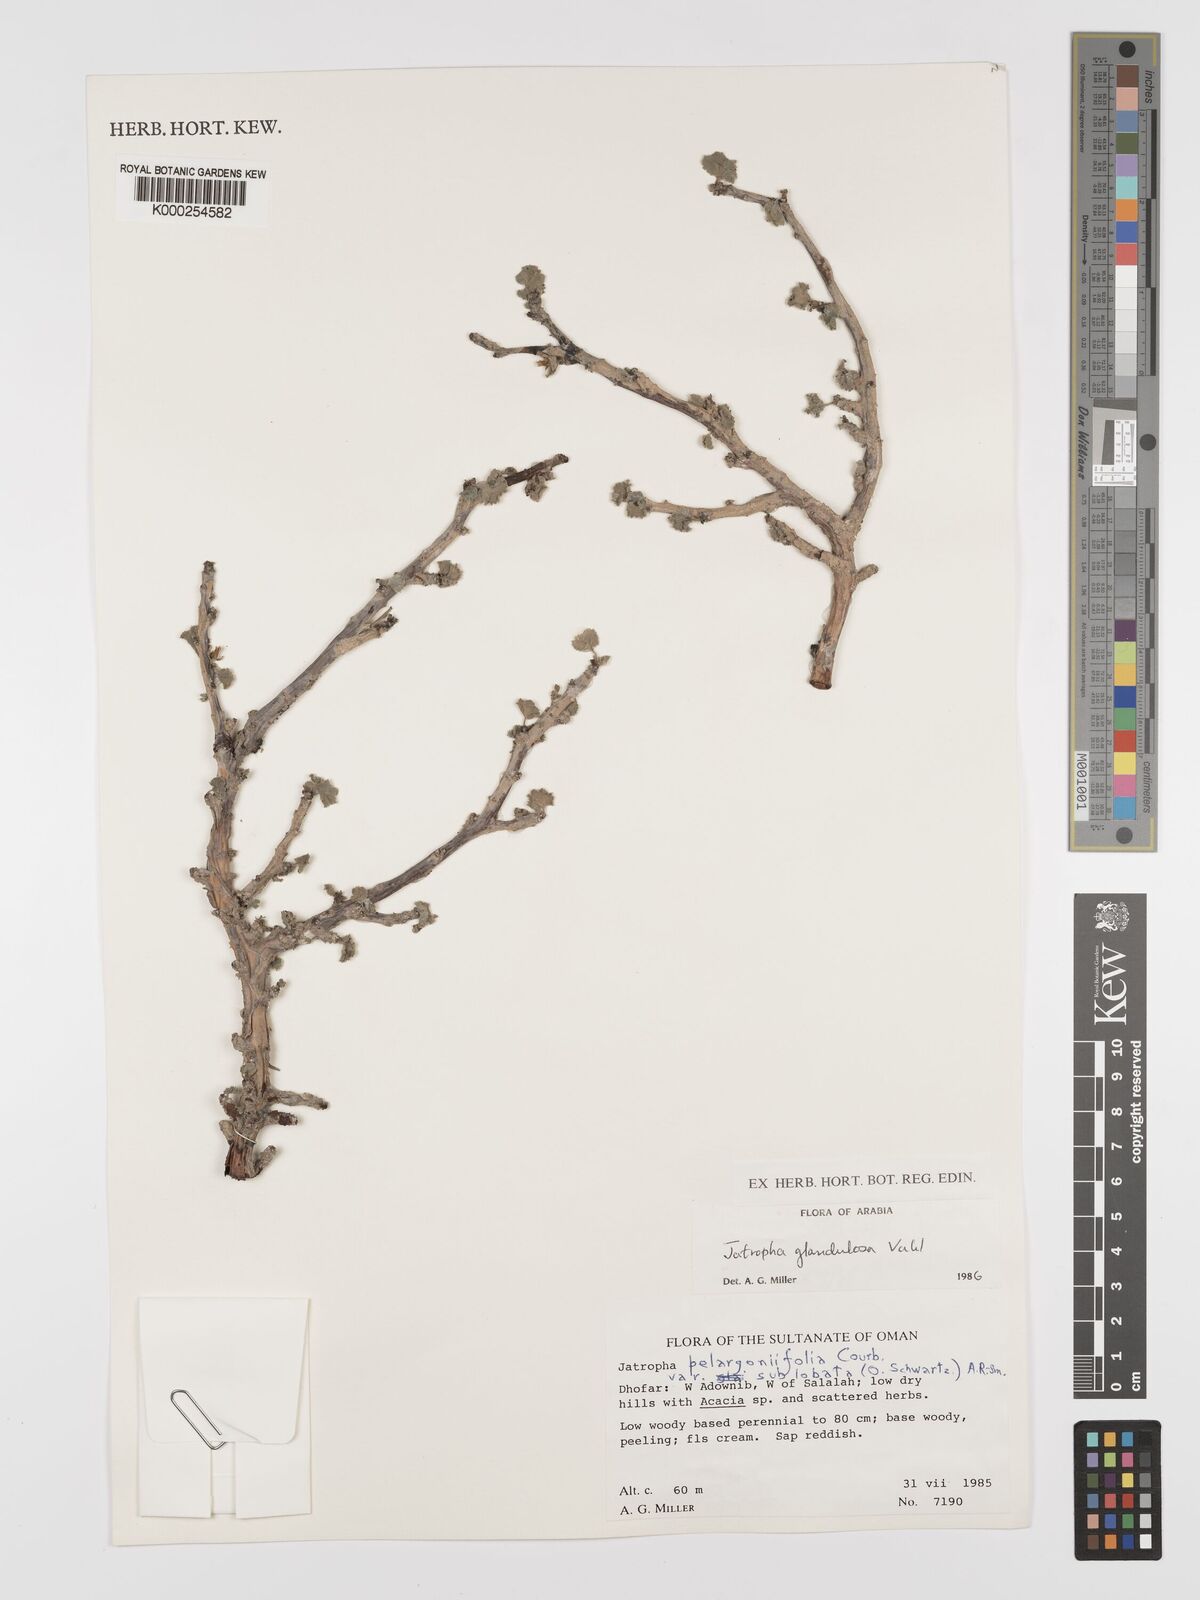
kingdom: Plantae
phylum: Tracheophyta
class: Magnoliopsida
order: Malpighiales
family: Euphorbiaceae
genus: Jatropha
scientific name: Jatropha pelargoniifolia
